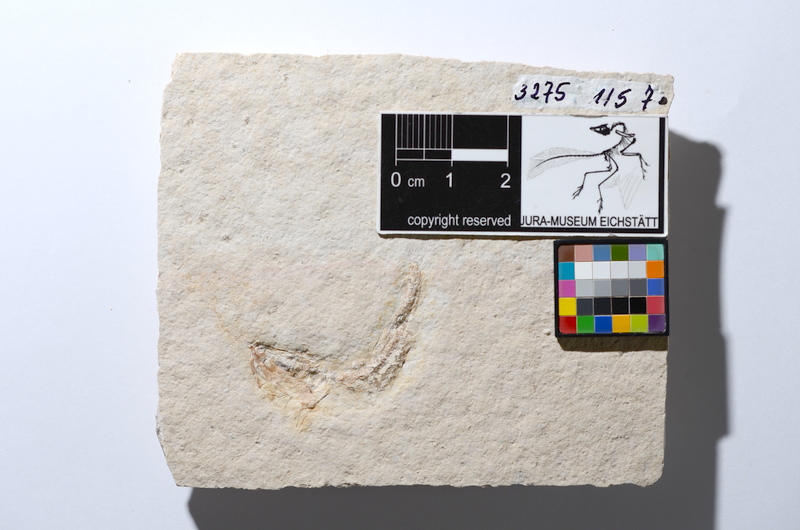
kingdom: Animalia
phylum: Chordata
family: Ascalaboidae
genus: Tharsis
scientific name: Tharsis dubius
